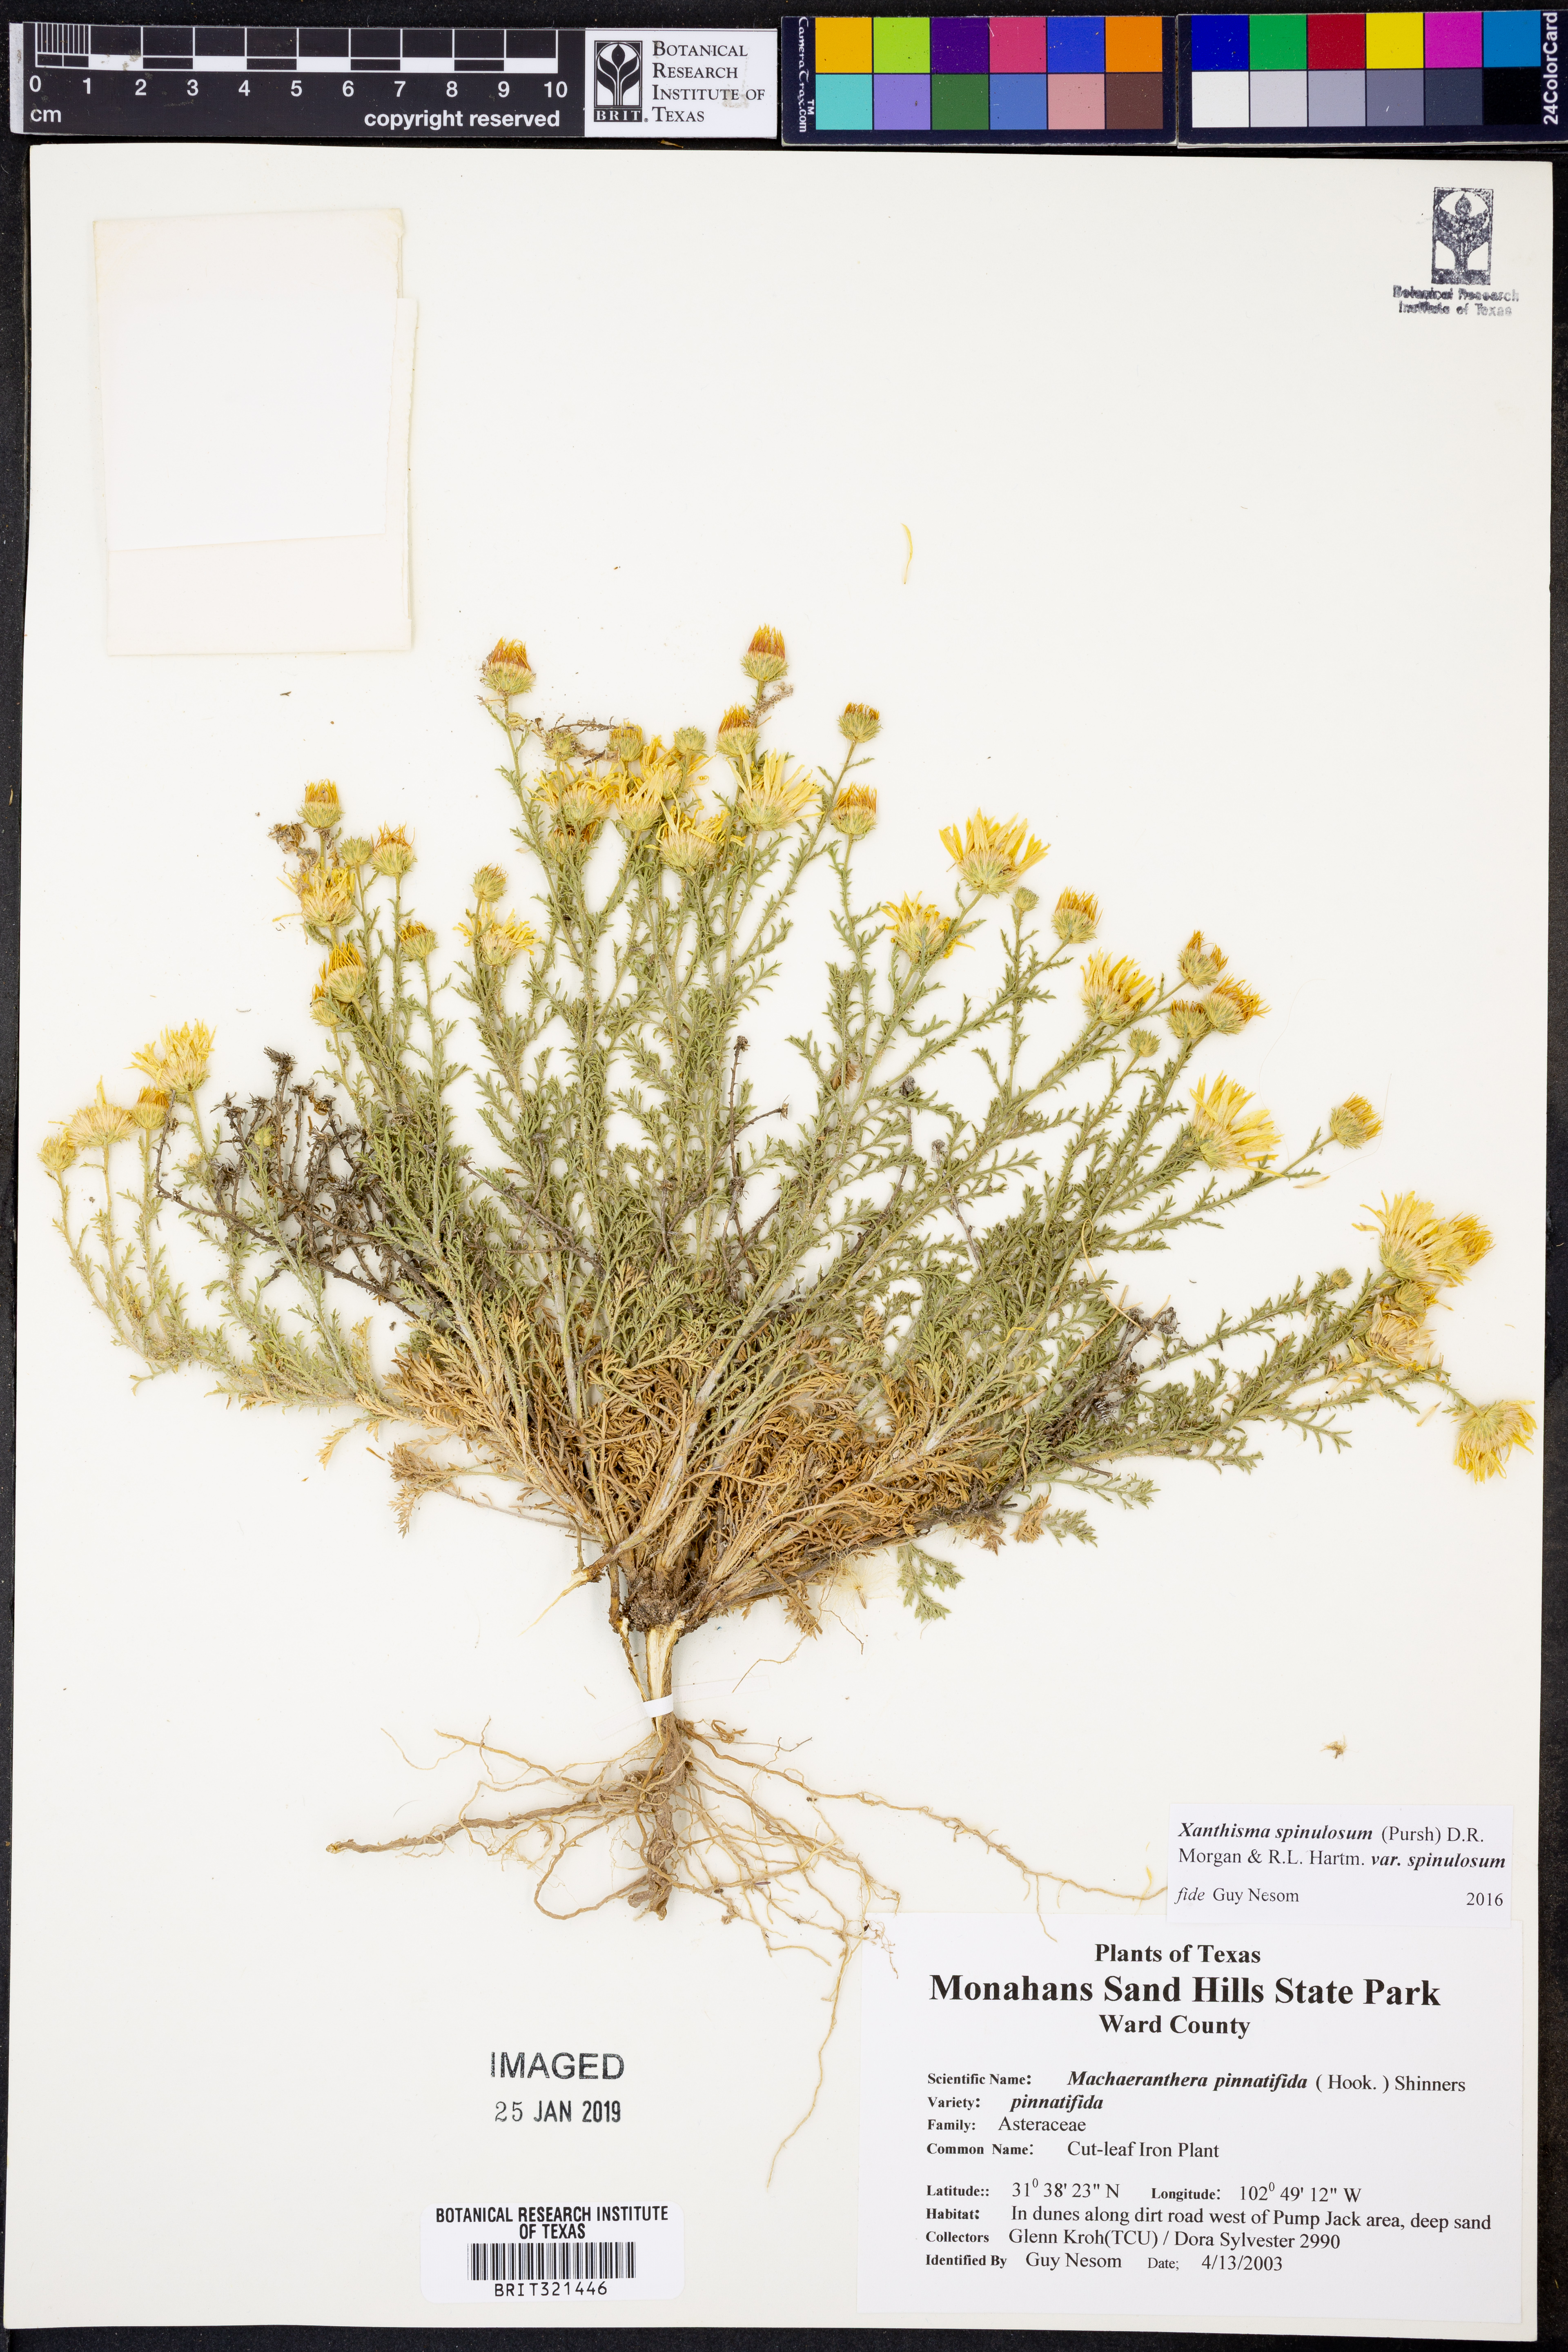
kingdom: Plantae
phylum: Tracheophyta
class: Magnoliopsida
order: Asterales
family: Asteraceae
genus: Xanthisma
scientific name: Xanthisma spinulosum
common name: Spiny goldenweed
